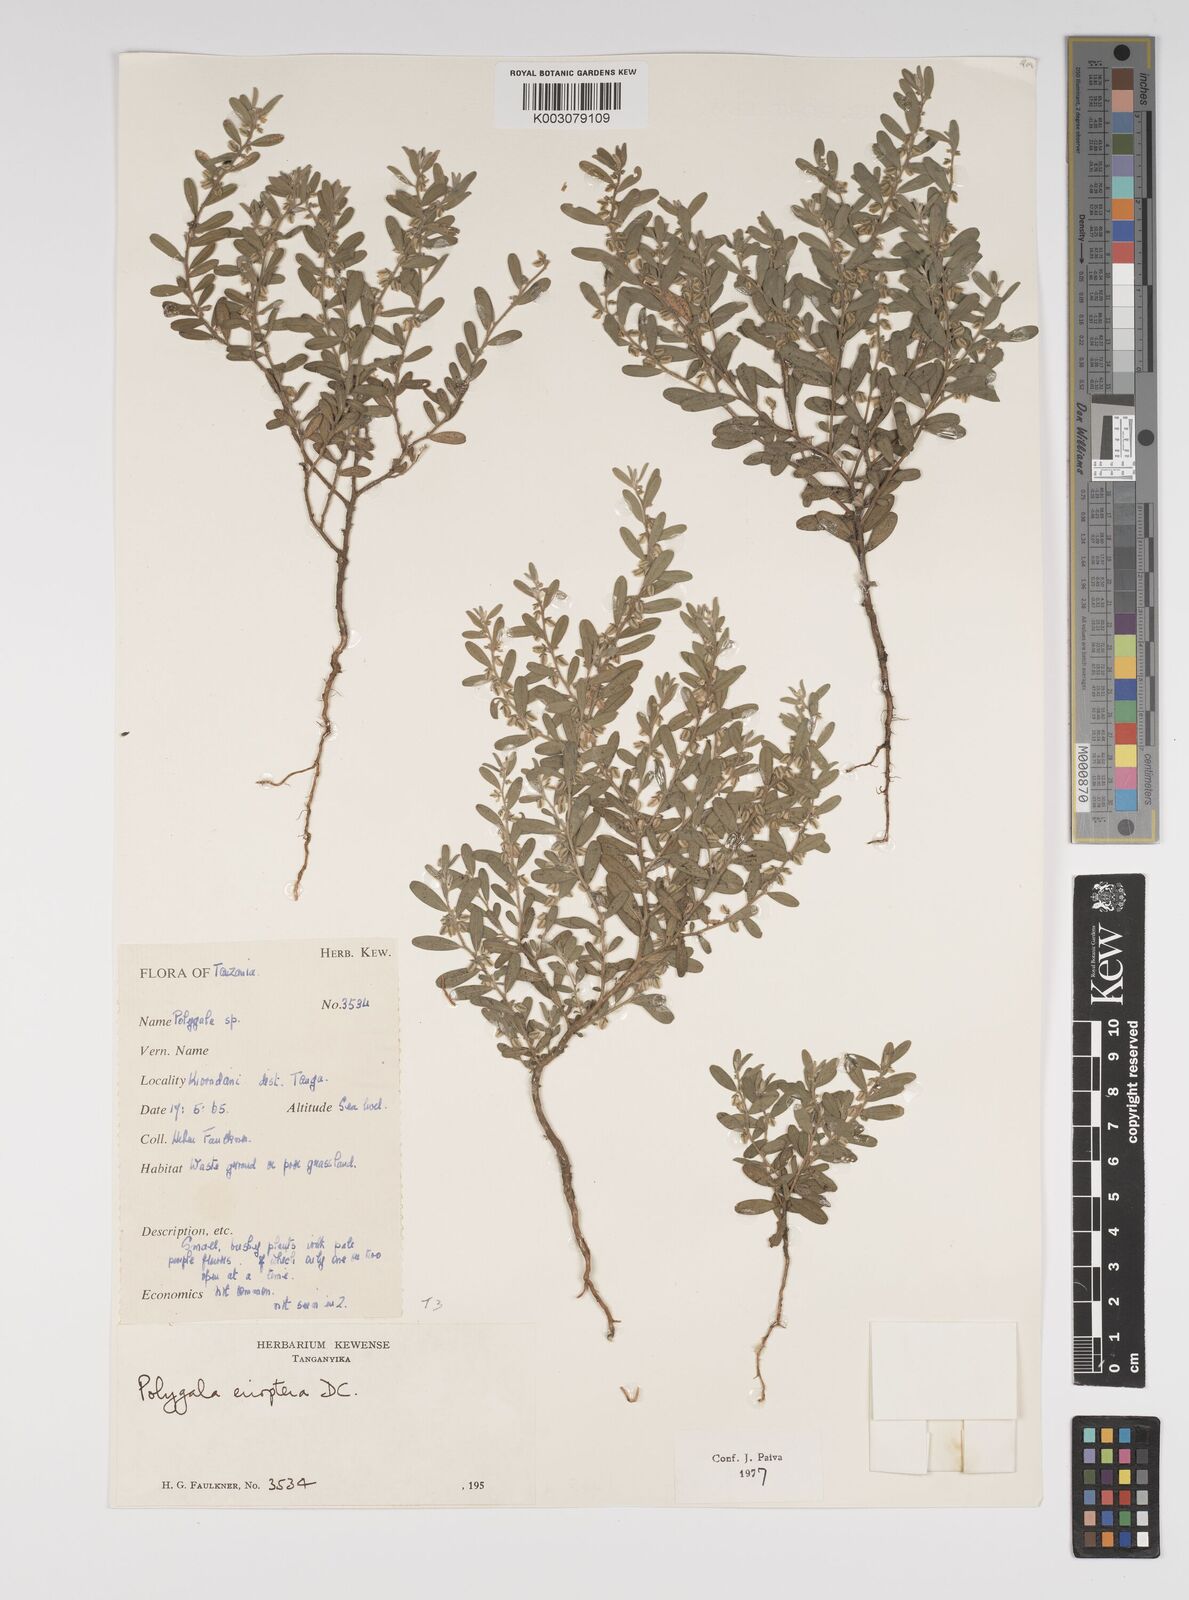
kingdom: Plantae
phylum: Tracheophyta
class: Magnoliopsida
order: Fabales
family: Polygalaceae
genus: Polygala
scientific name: Polygala erioptera
